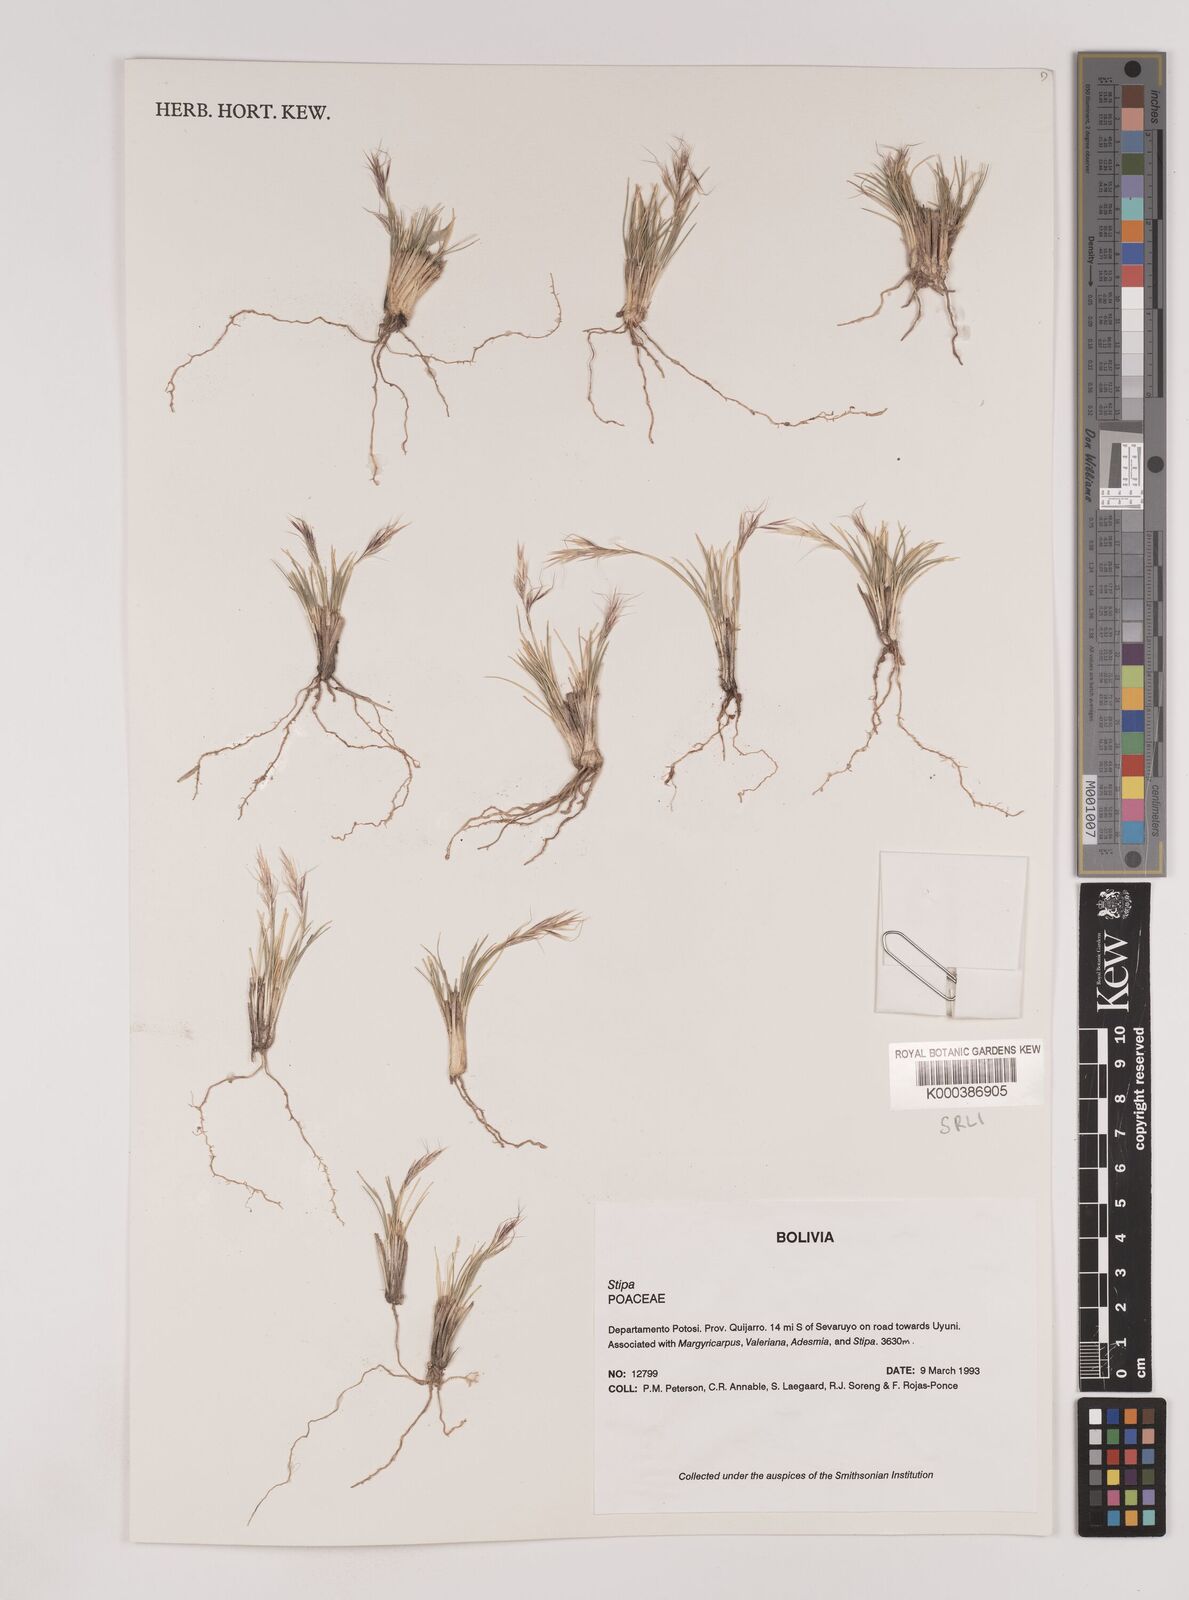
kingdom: Plantae
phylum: Tracheophyta
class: Liliopsida
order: Poales
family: Poaceae
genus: Nassella
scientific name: Nassella nardoides
